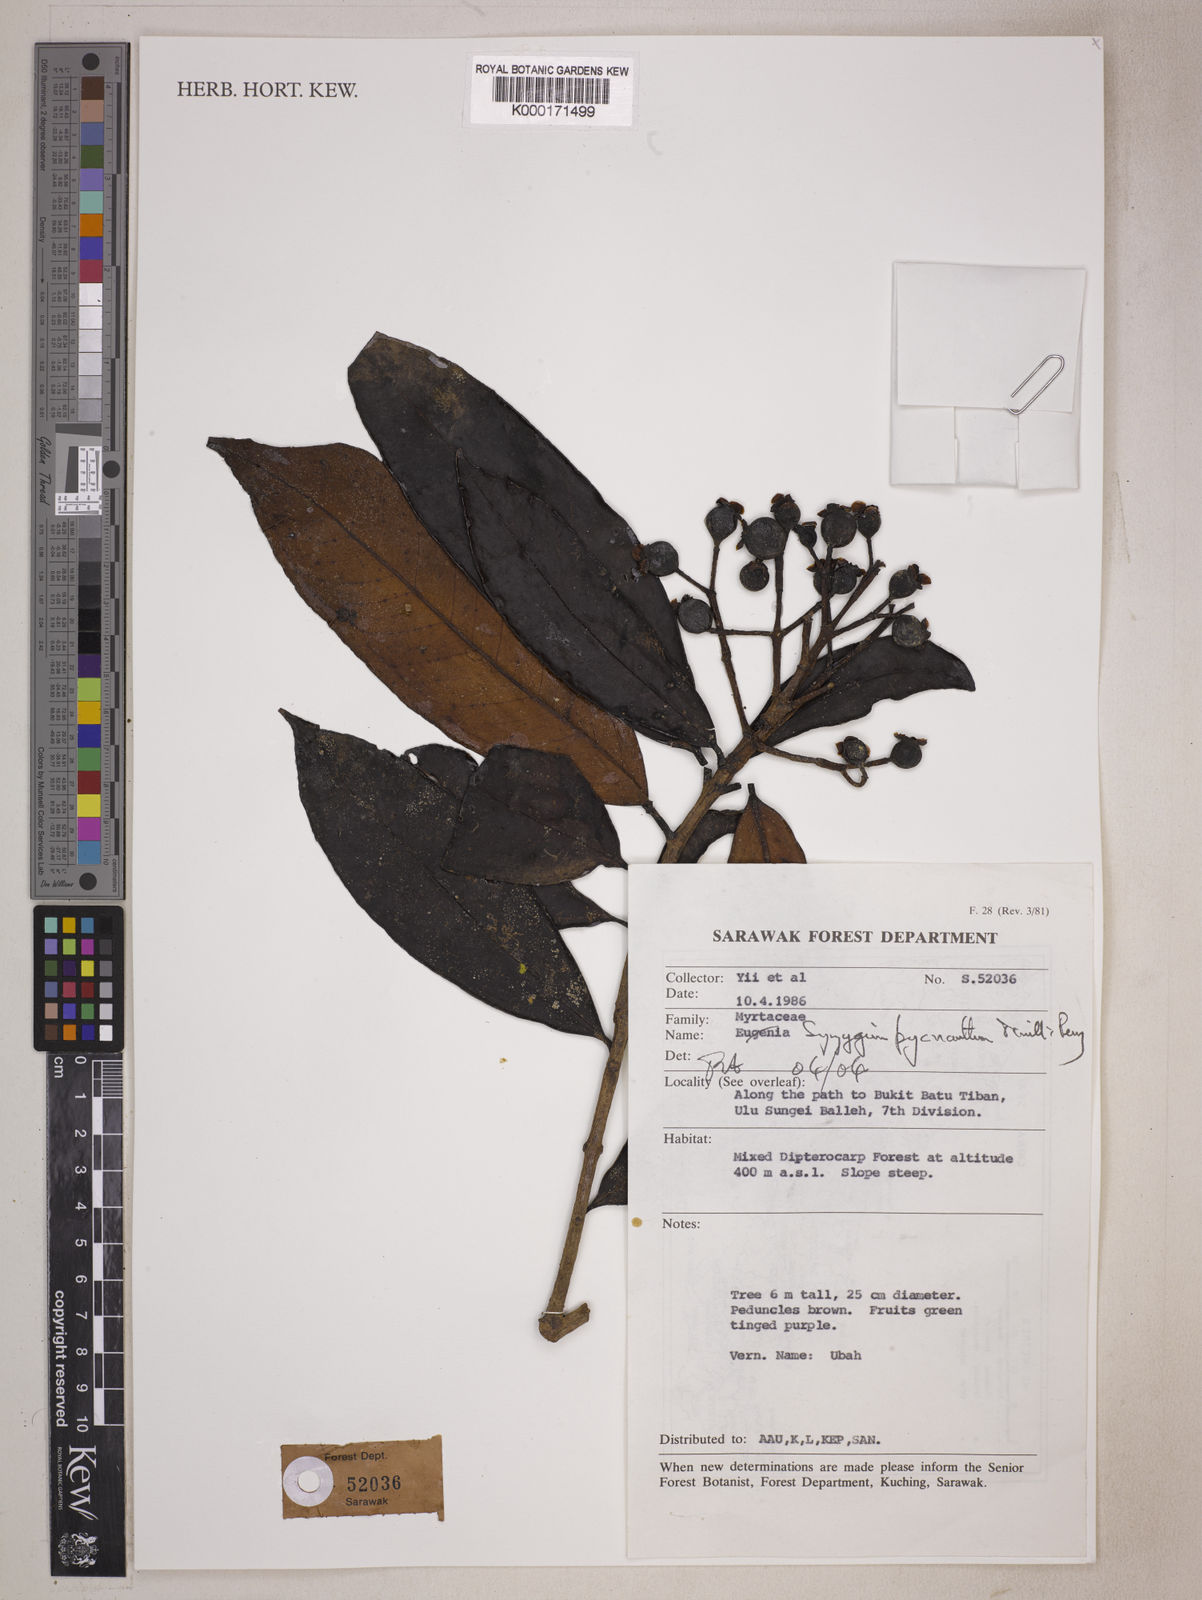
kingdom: Plantae
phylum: Tracheophyta
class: Magnoliopsida
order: Myrtales
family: Myrtaceae
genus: Syzygium
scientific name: Syzygium
